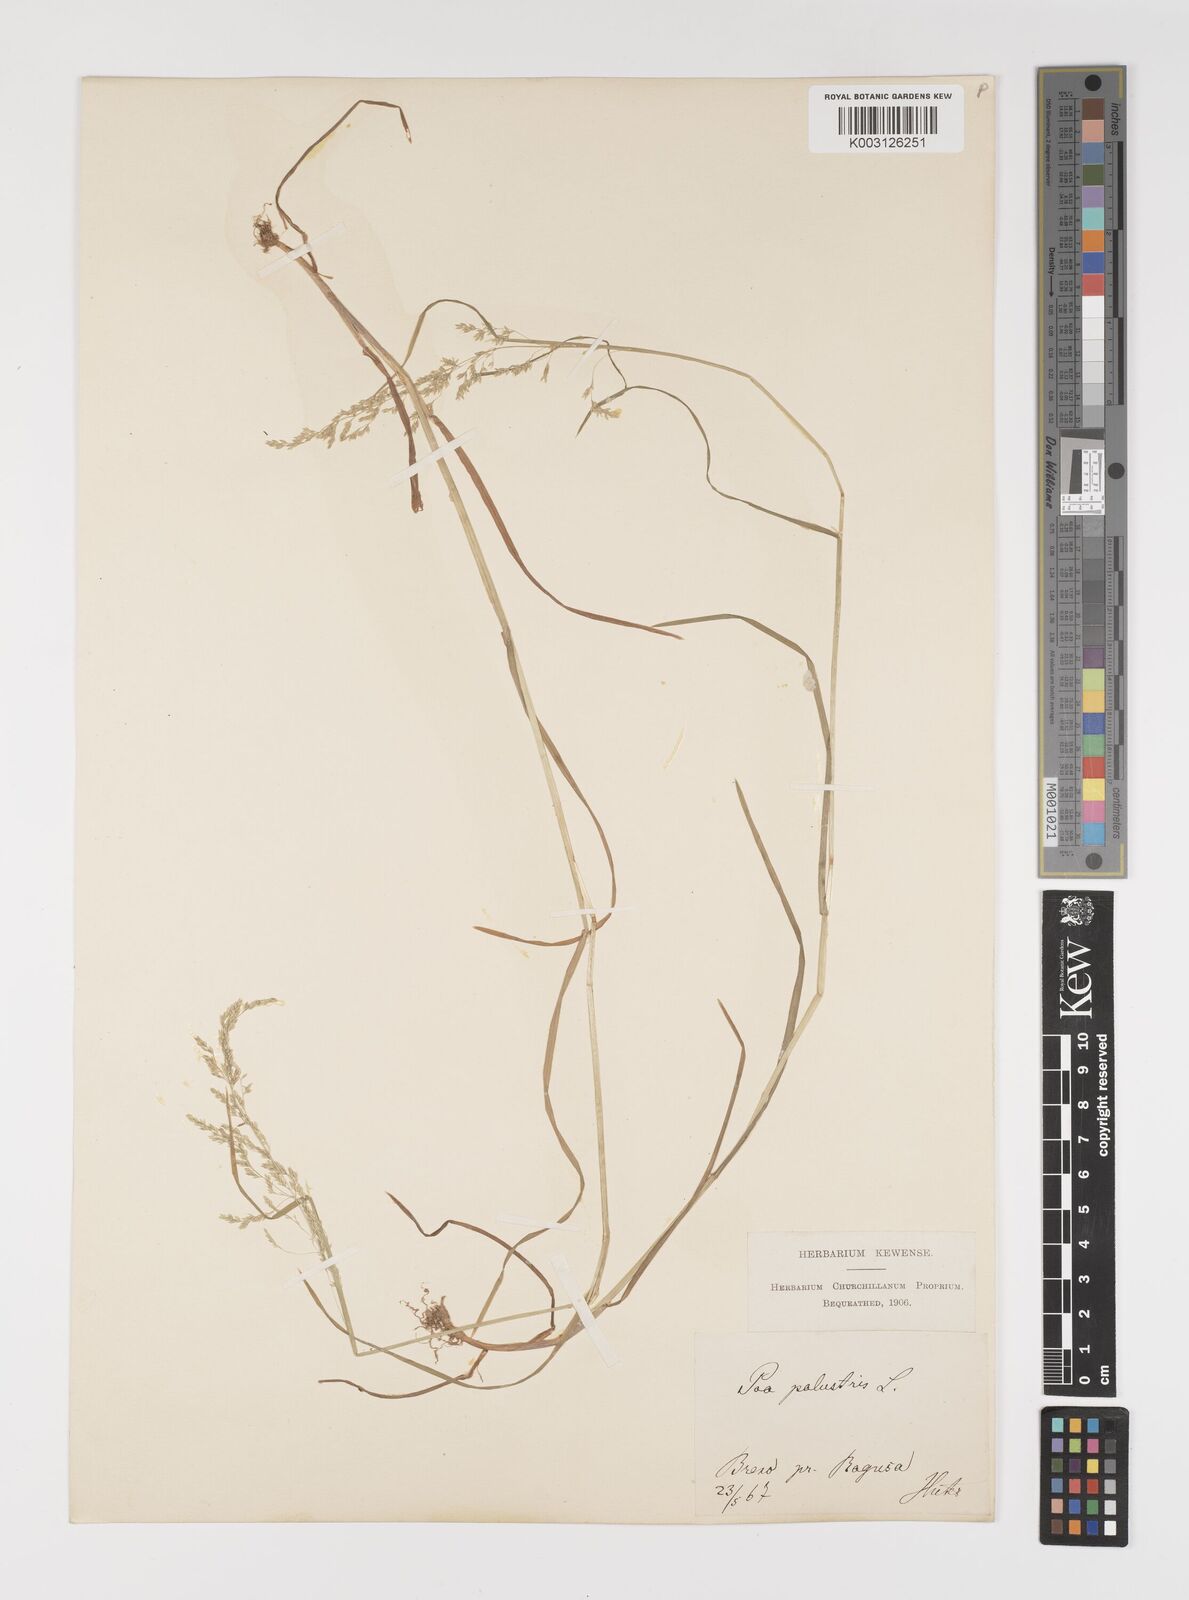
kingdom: Plantae
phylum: Tracheophyta
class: Liliopsida
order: Poales
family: Poaceae
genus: Poa
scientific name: Poa palustris
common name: Swamp meadow-grass
